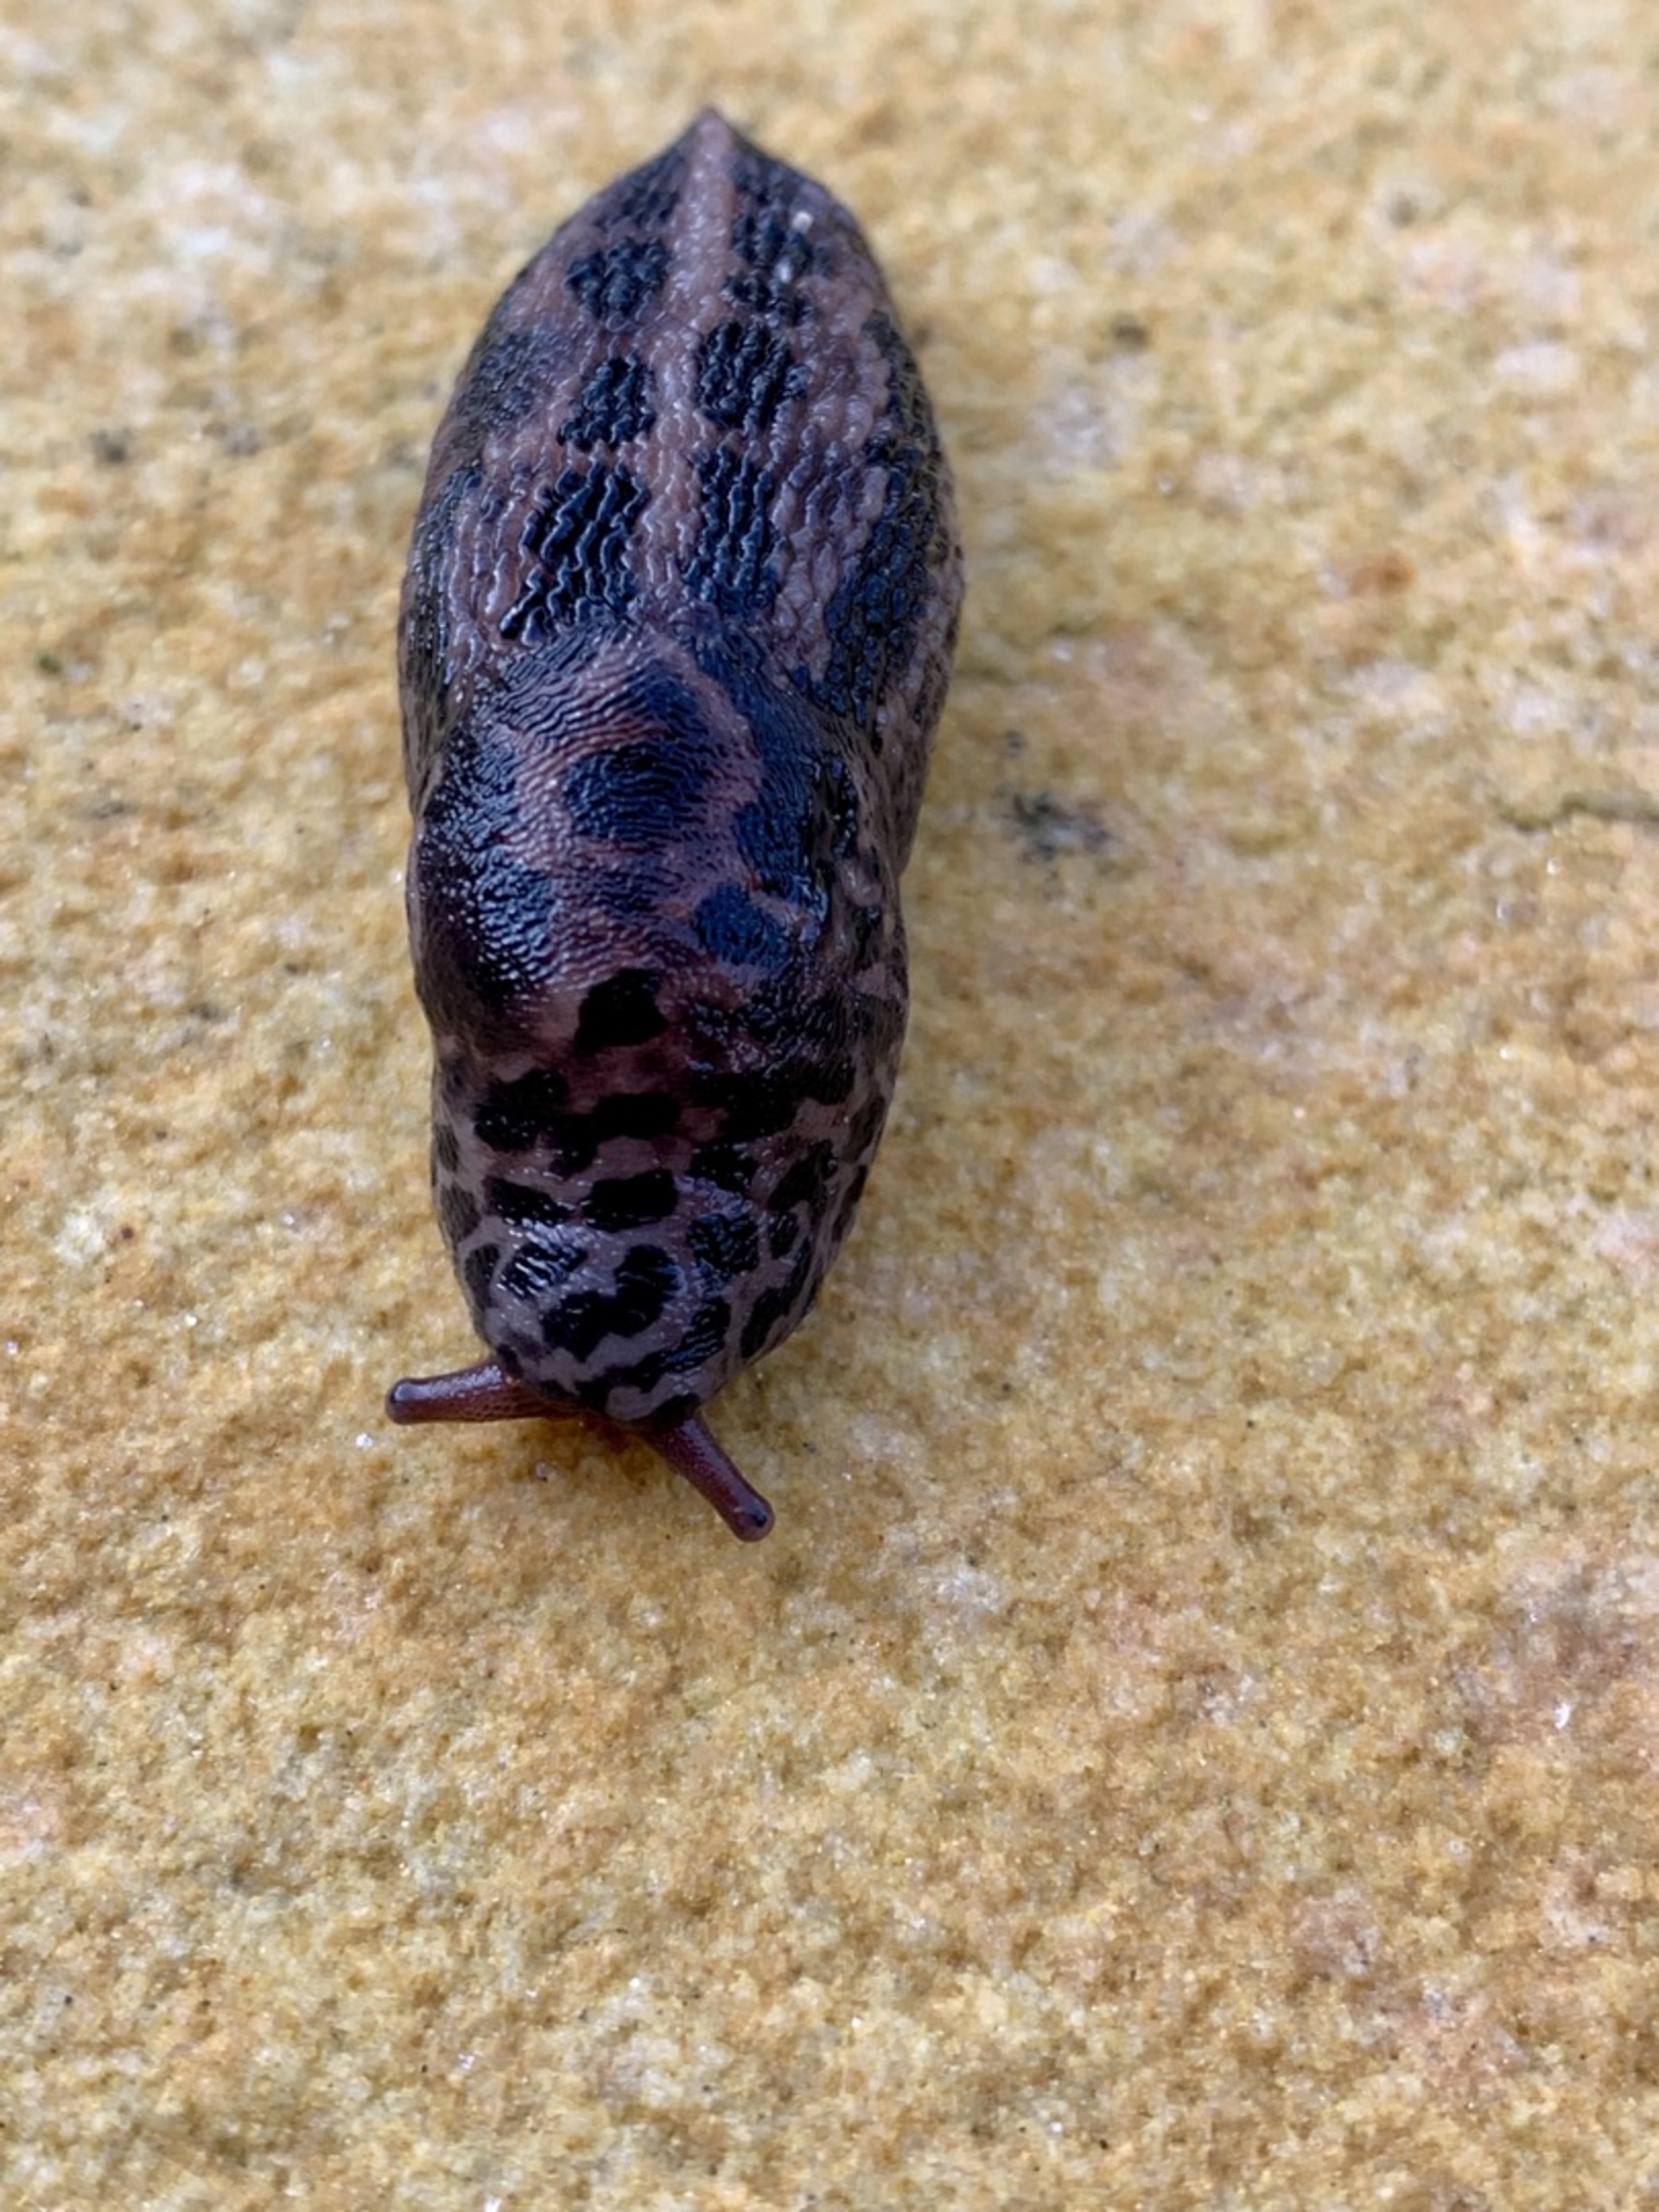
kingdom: Animalia
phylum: Mollusca
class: Gastropoda
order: Stylommatophora
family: Limacidae
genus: Limax
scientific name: Limax maximus
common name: Pantersnegl
